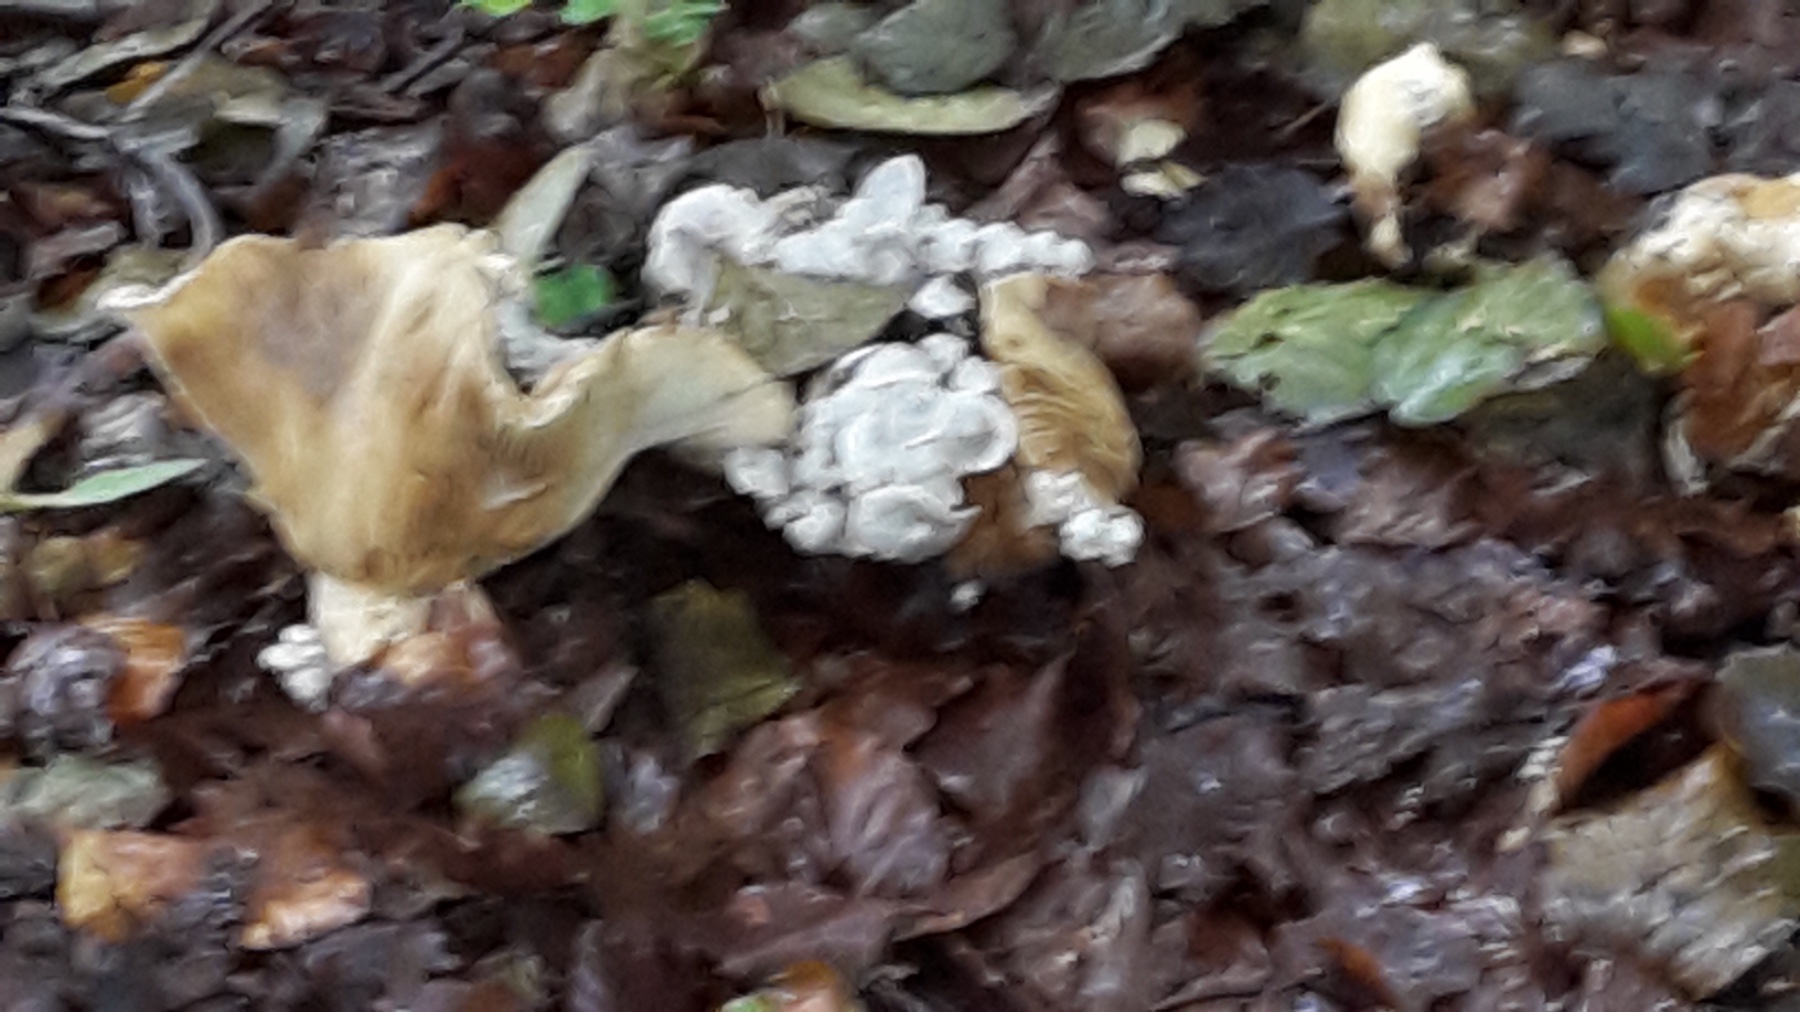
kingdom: Fungi
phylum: Basidiomycota
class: Agaricomycetes
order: Agaricales
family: Lyophyllaceae
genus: Asterophora
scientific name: Asterophora parasitica
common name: grå snyltehat
